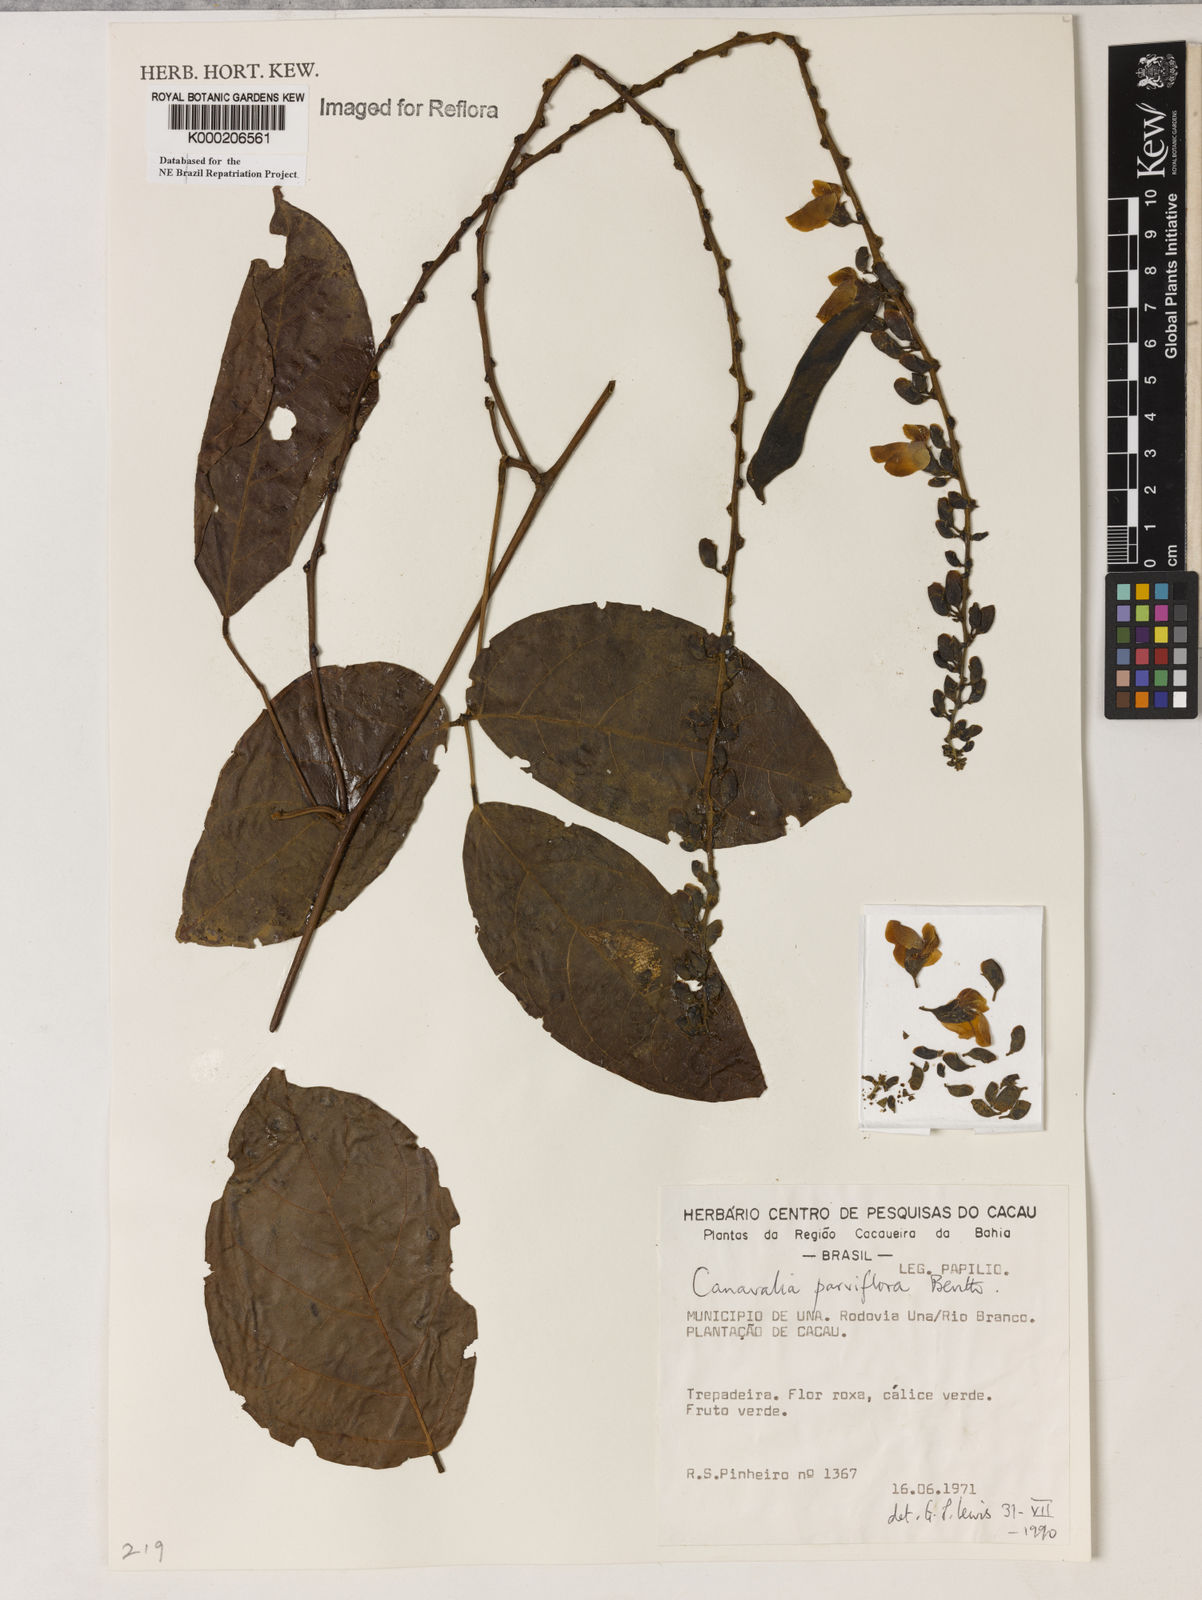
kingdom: Plantae
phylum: Tracheophyta
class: Magnoliopsida
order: Fabales
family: Fabaceae
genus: Canavalia
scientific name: Canavalia parviflora
